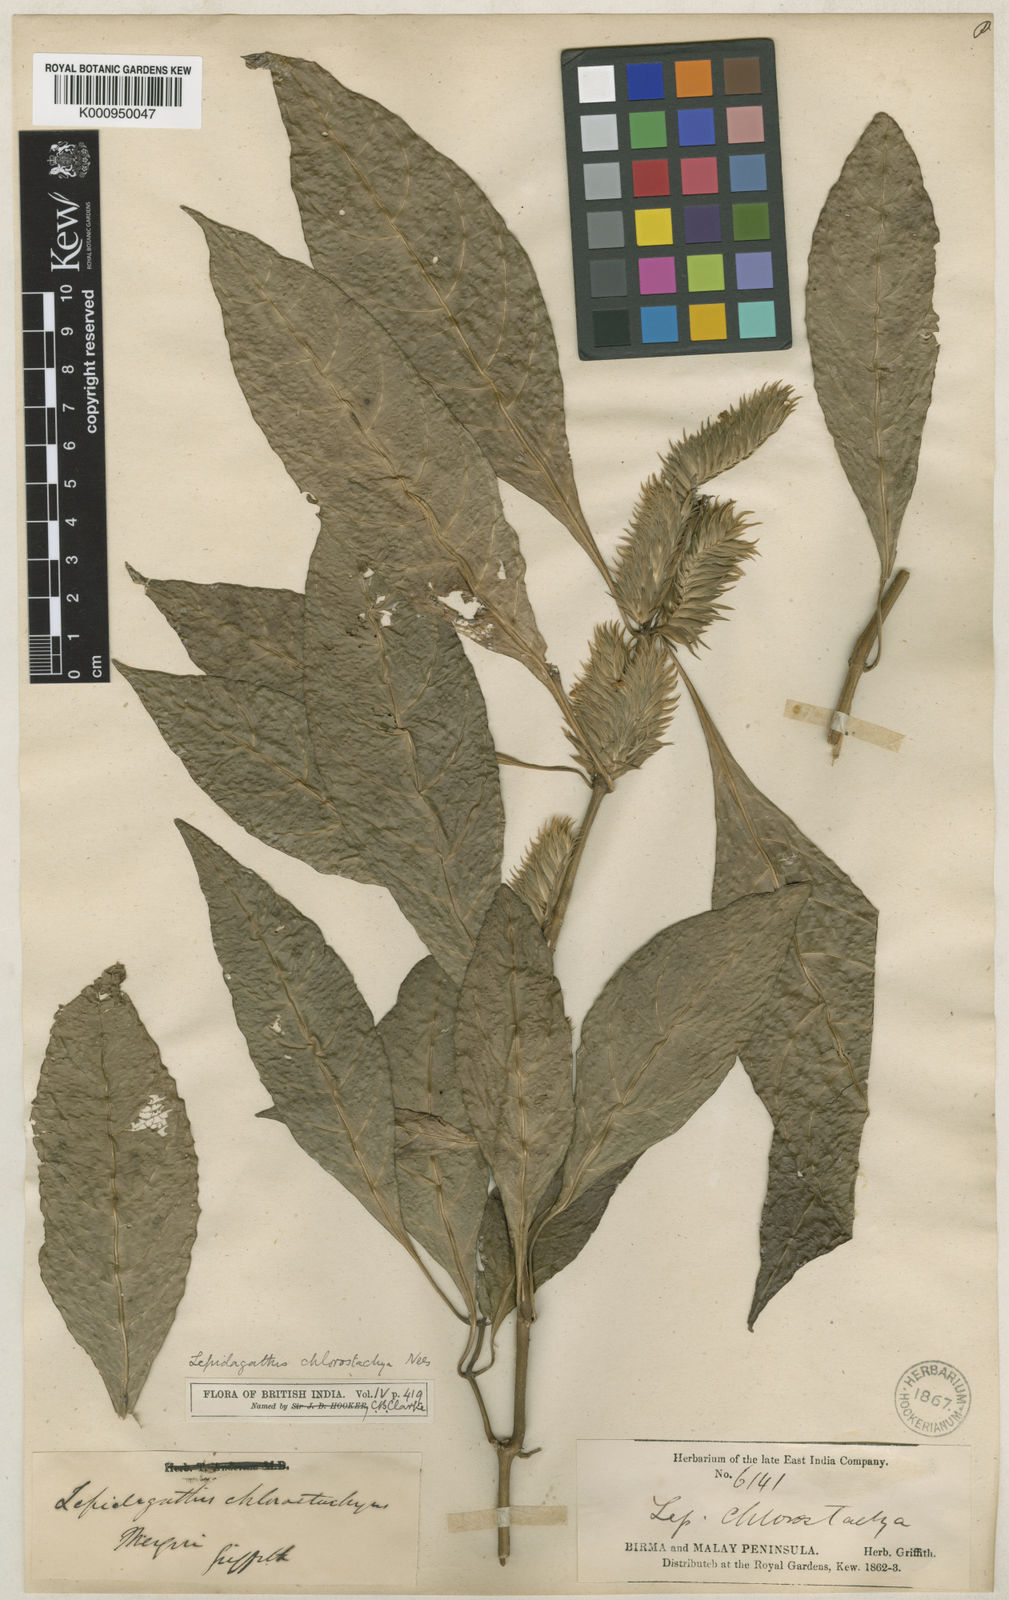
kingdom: Plantae
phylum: Tracheophyta
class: Magnoliopsida
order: Lamiales
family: Acanthaceae
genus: Lepidagathis
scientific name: Lepidagathis chlorostachya
